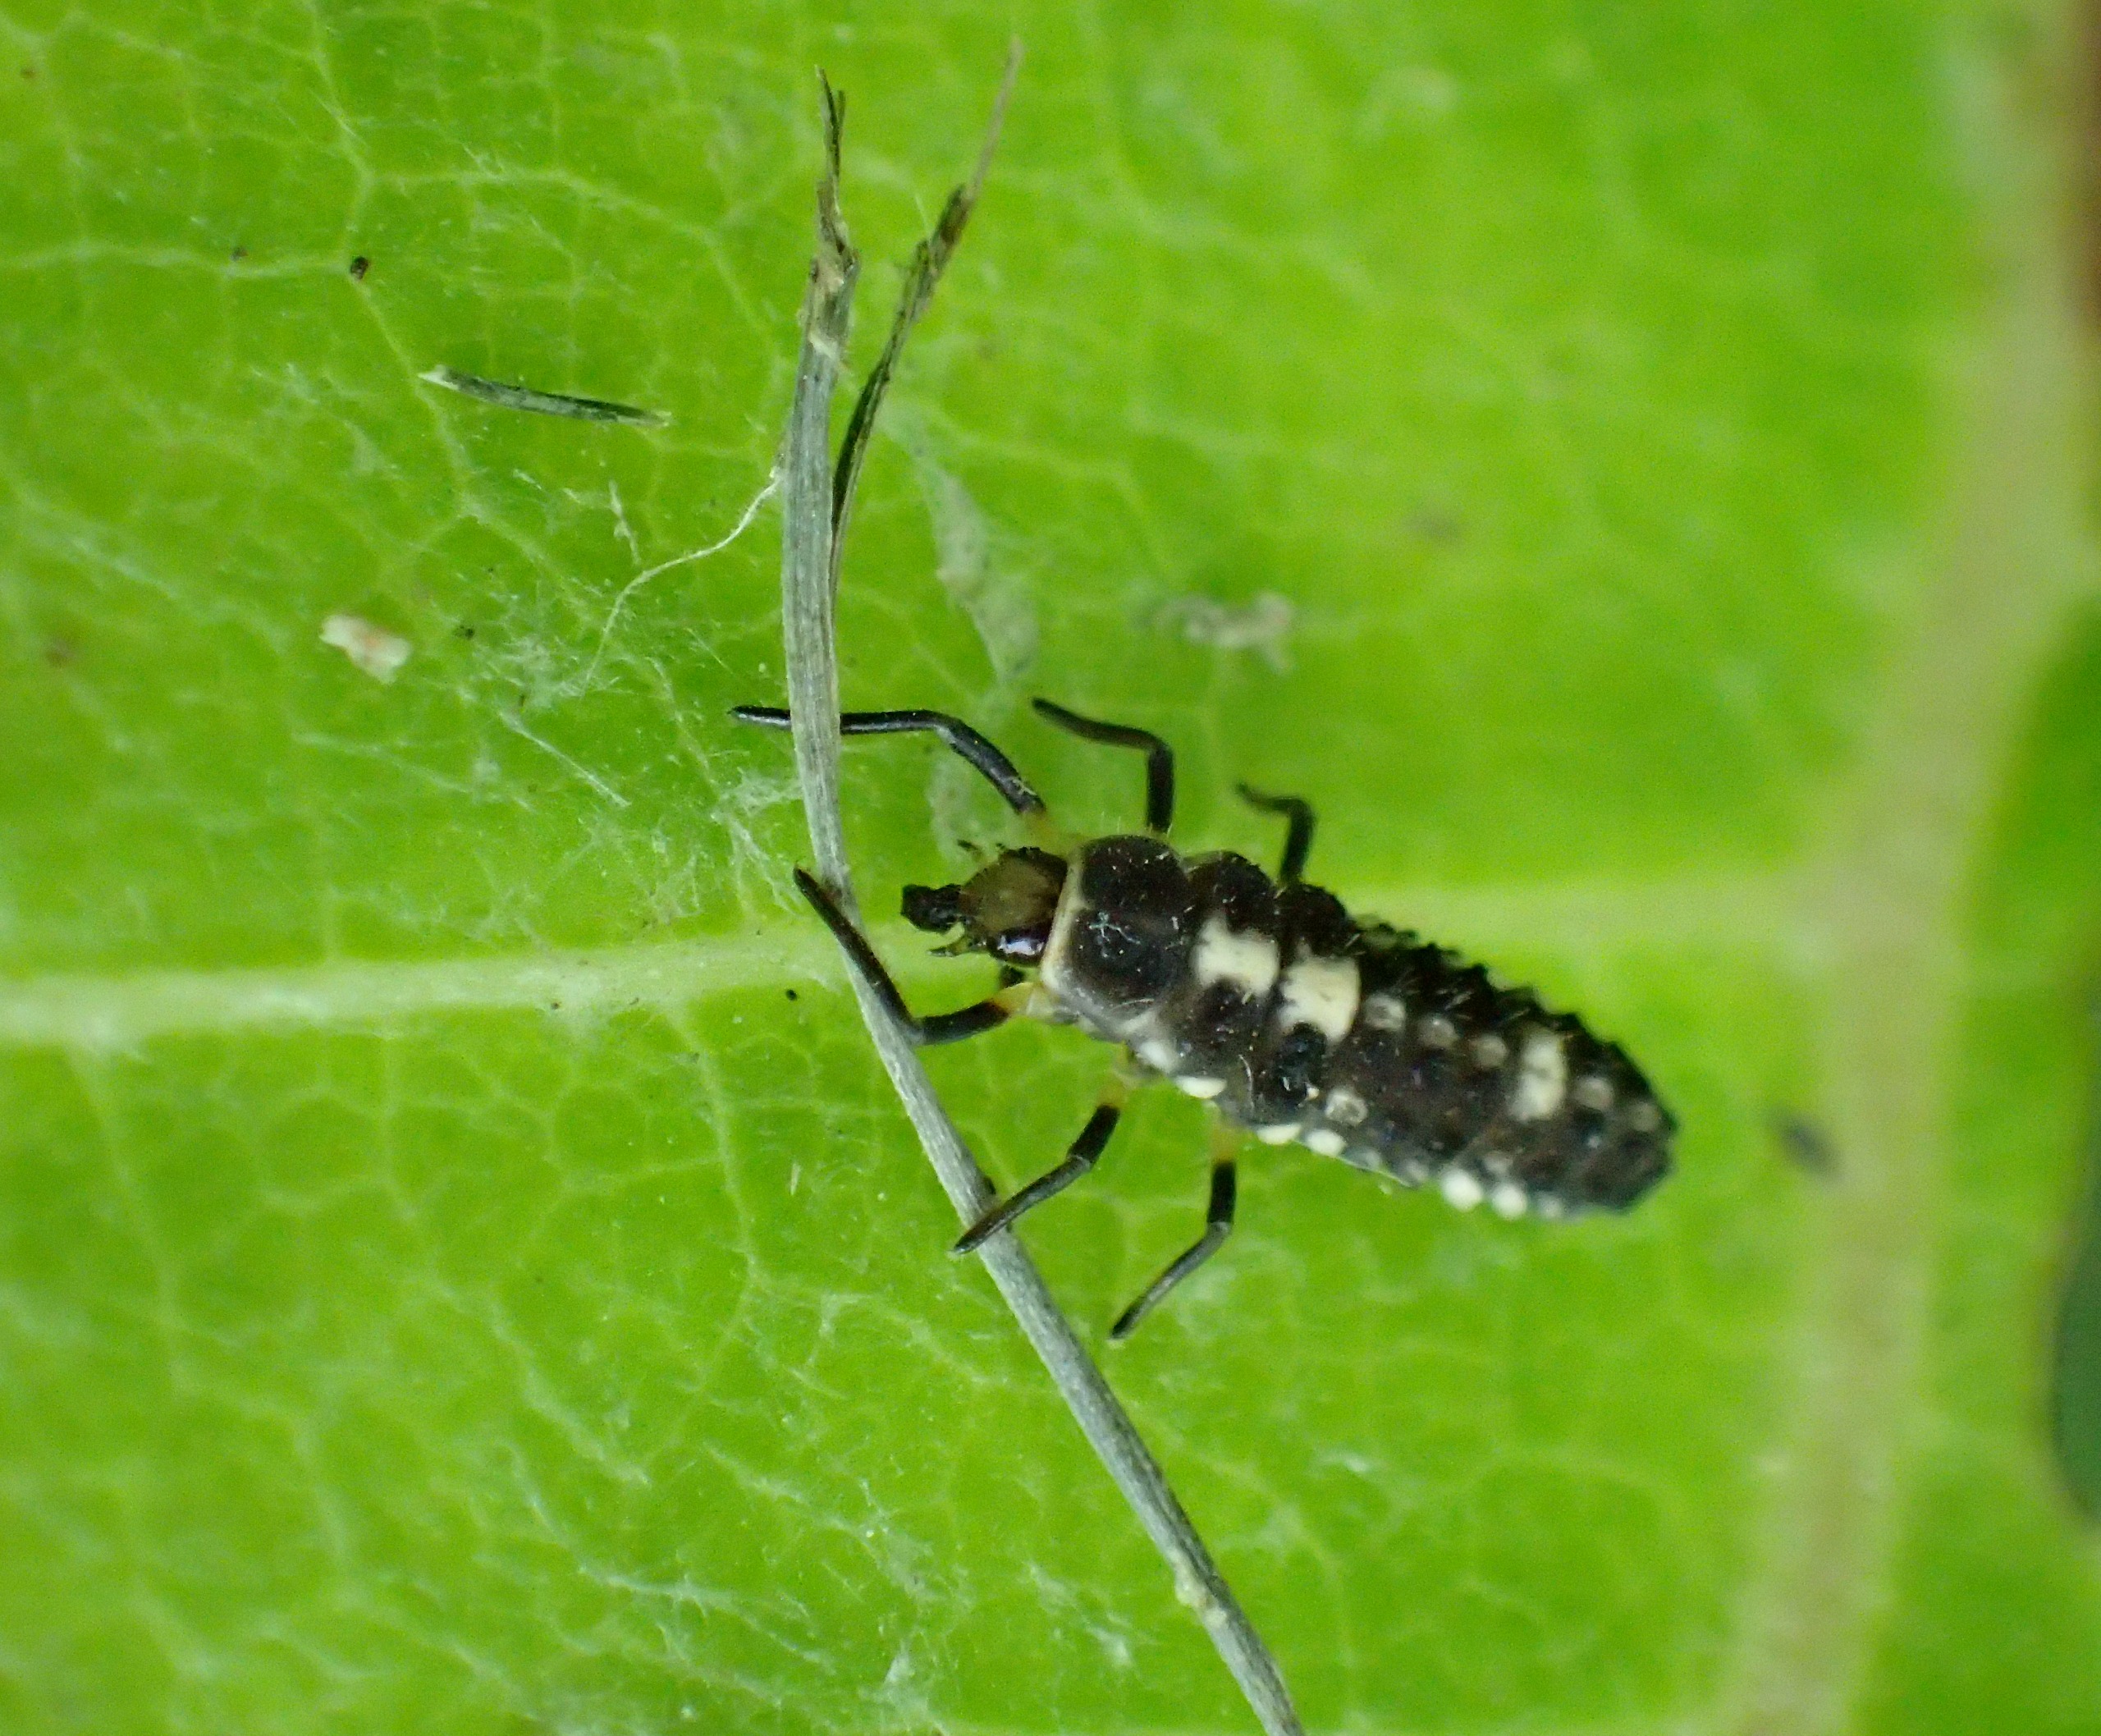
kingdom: Animalia
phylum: Arthropoda
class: Insecta
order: Coleoptera
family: Coccinellidae
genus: Propylaea
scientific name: Propylaea quatuordecimpunctata
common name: Skakbræt
